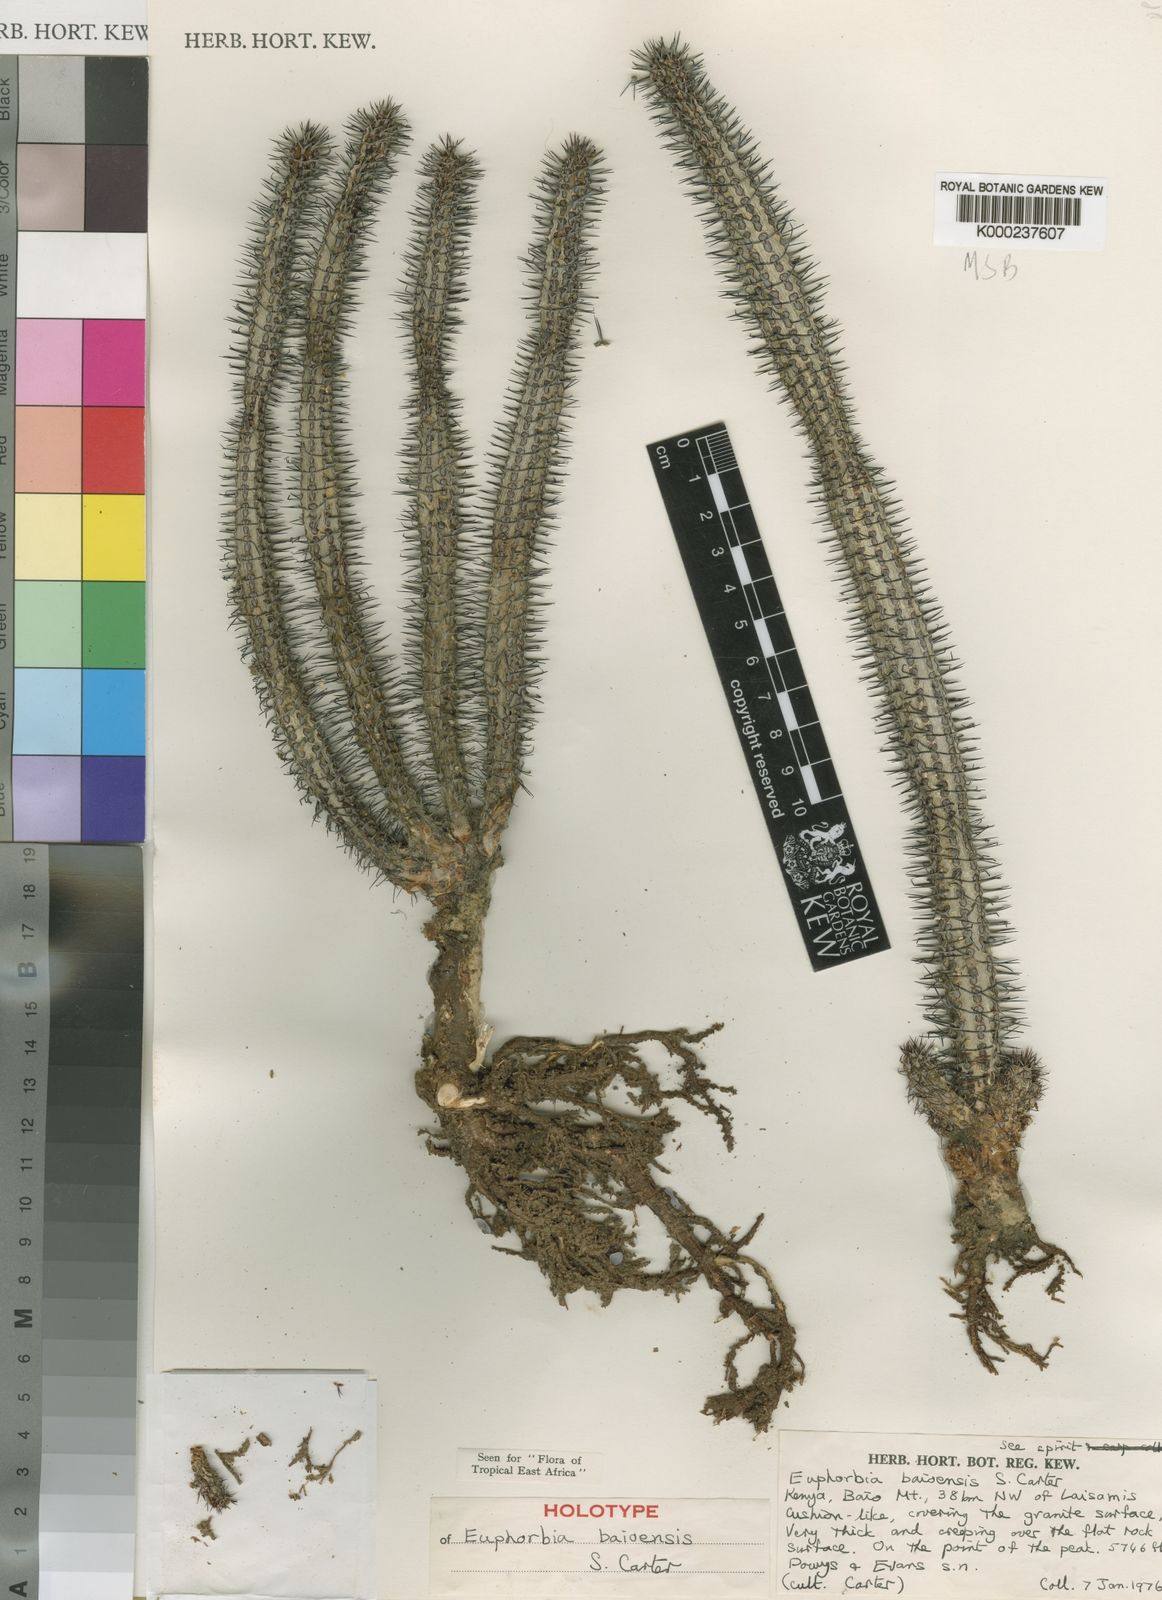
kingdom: Plantae
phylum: Tracheophyta
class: Magnoliopsida
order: Malpighiales
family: Euphorbiaceae
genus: Euphorbia
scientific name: Euphorbia baioensis
